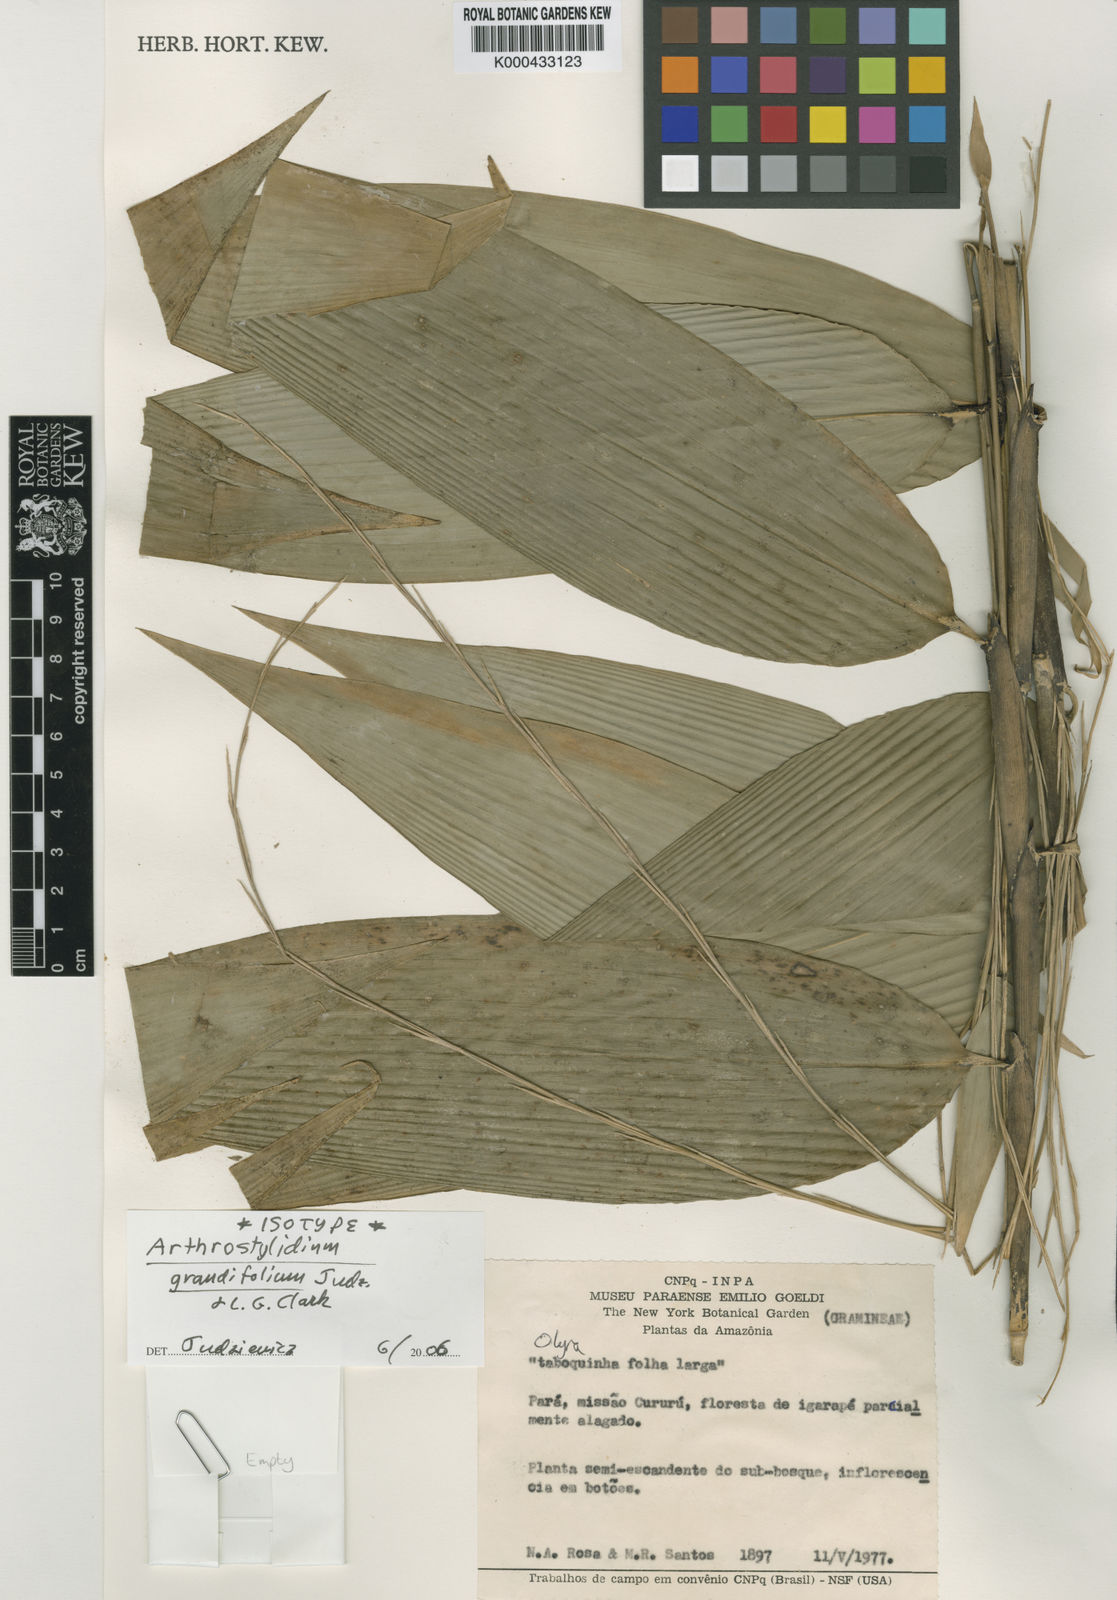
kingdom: Plantae
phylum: Tracheophyta
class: Liliopsida
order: Poales
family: Poaceae
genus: Arthrostylidium
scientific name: Arthrostylidium grandifolium
